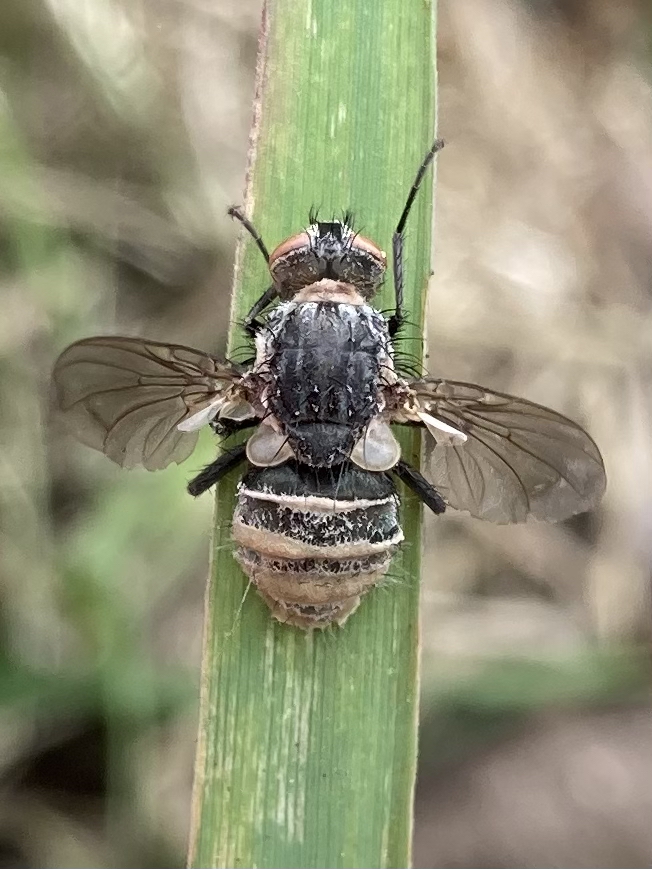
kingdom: Fungi
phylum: Entomophthoromycota
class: Entomophthoromycetes
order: Entomophthorales
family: Entomophthoraceae
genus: Entomophthora
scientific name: Entomophthora muscae
